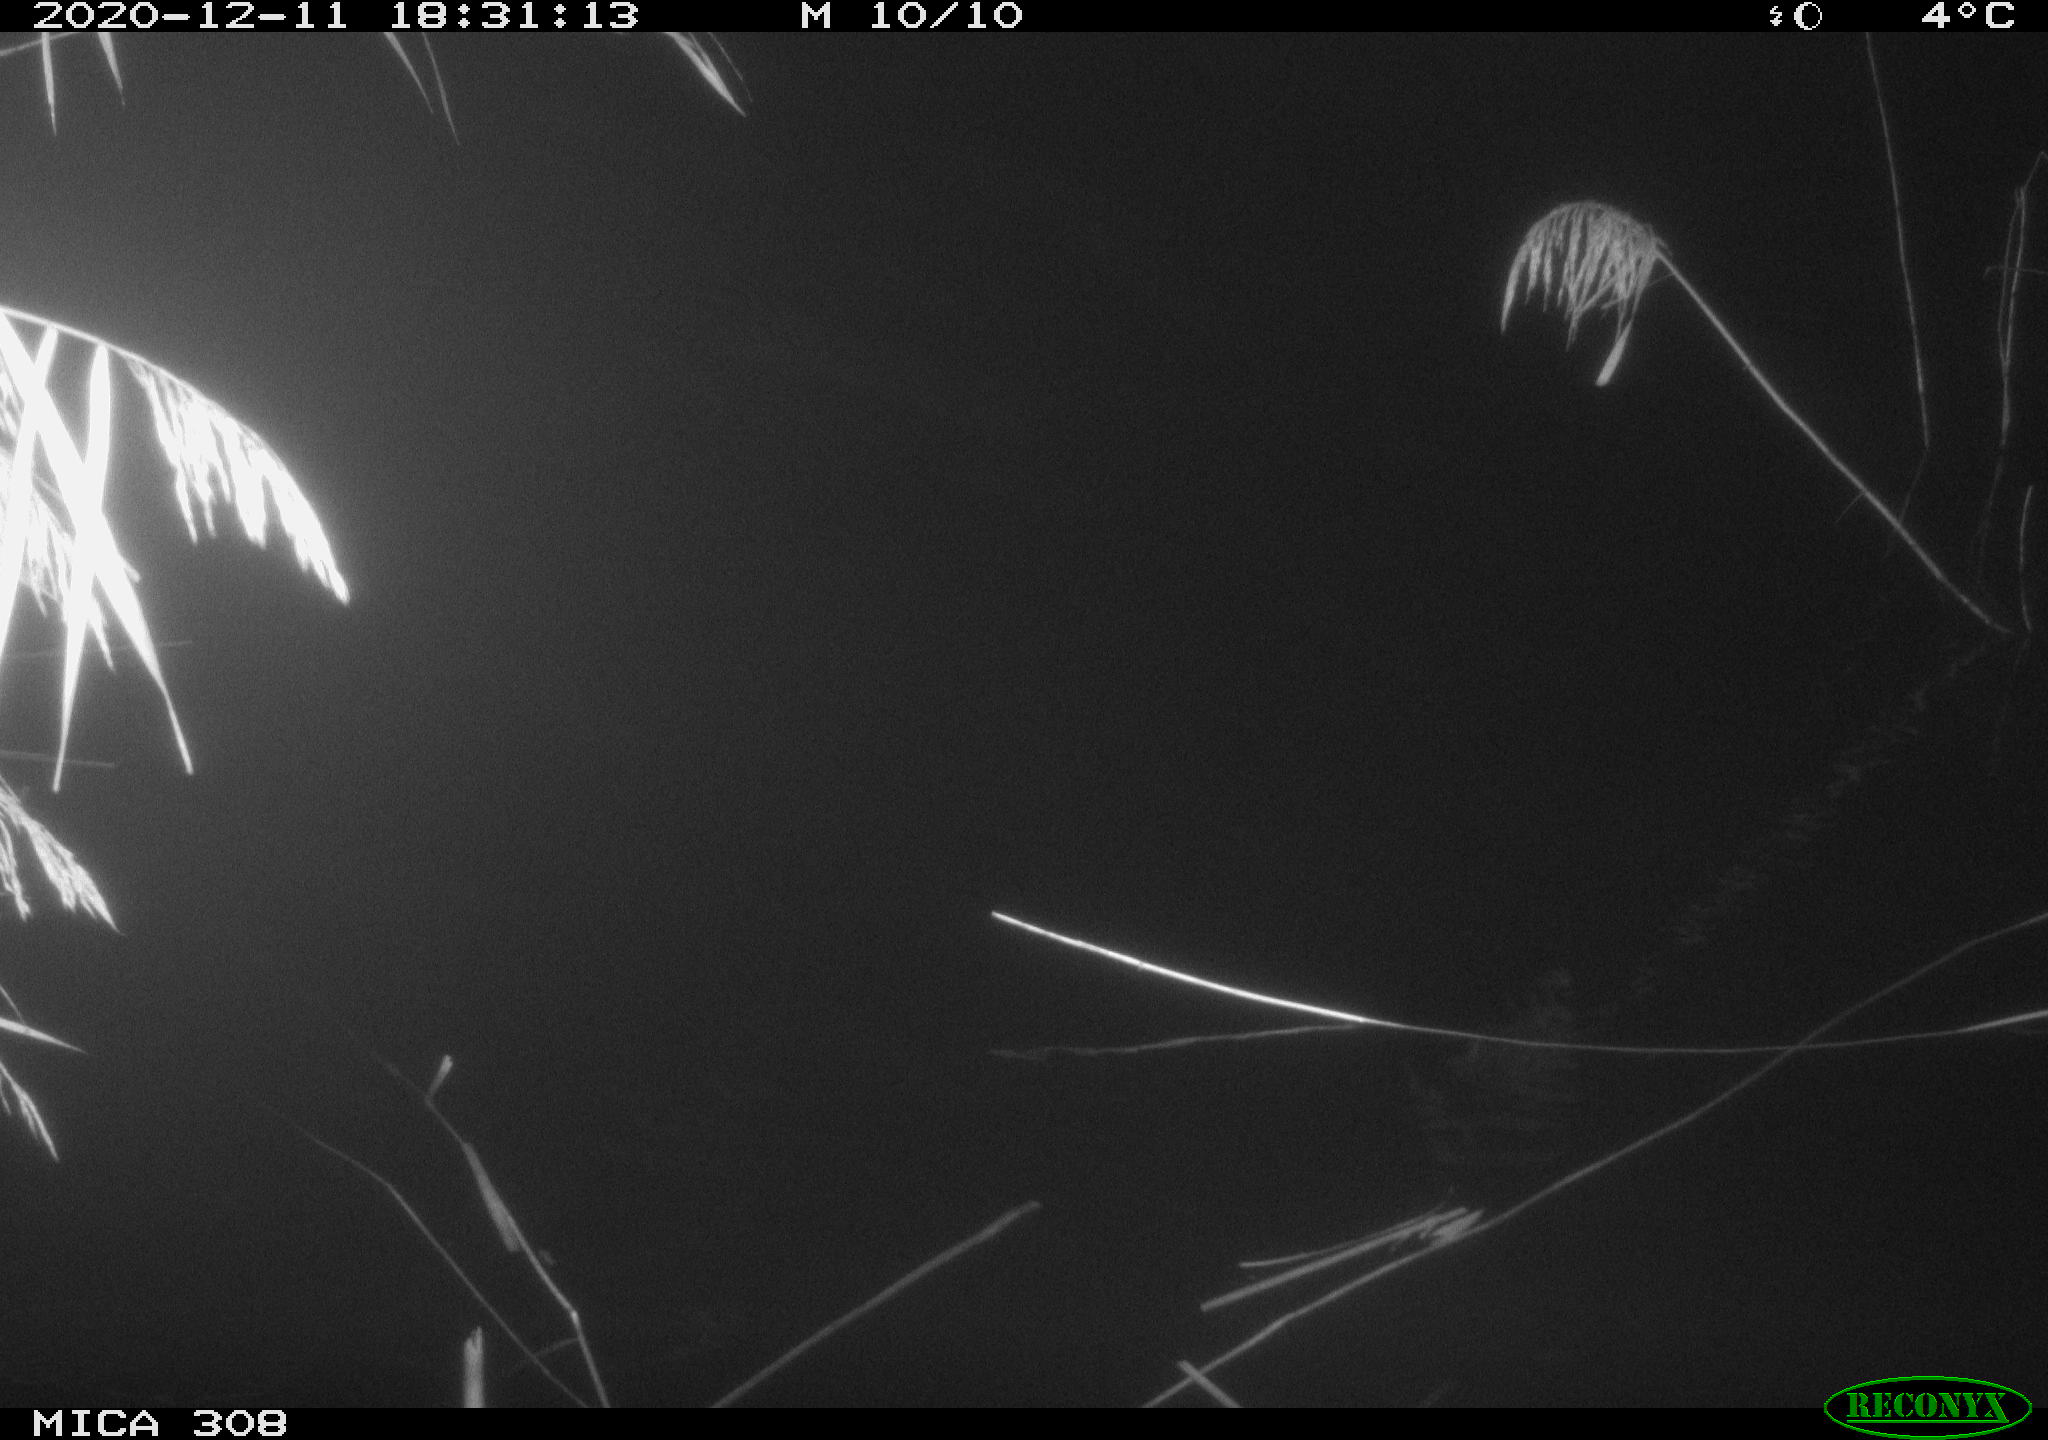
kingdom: Animalia
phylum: Chordata
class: Mammalia
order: Rodentia
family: Muridae
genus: Rattus
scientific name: Rattus norvegicus
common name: Brown rat
